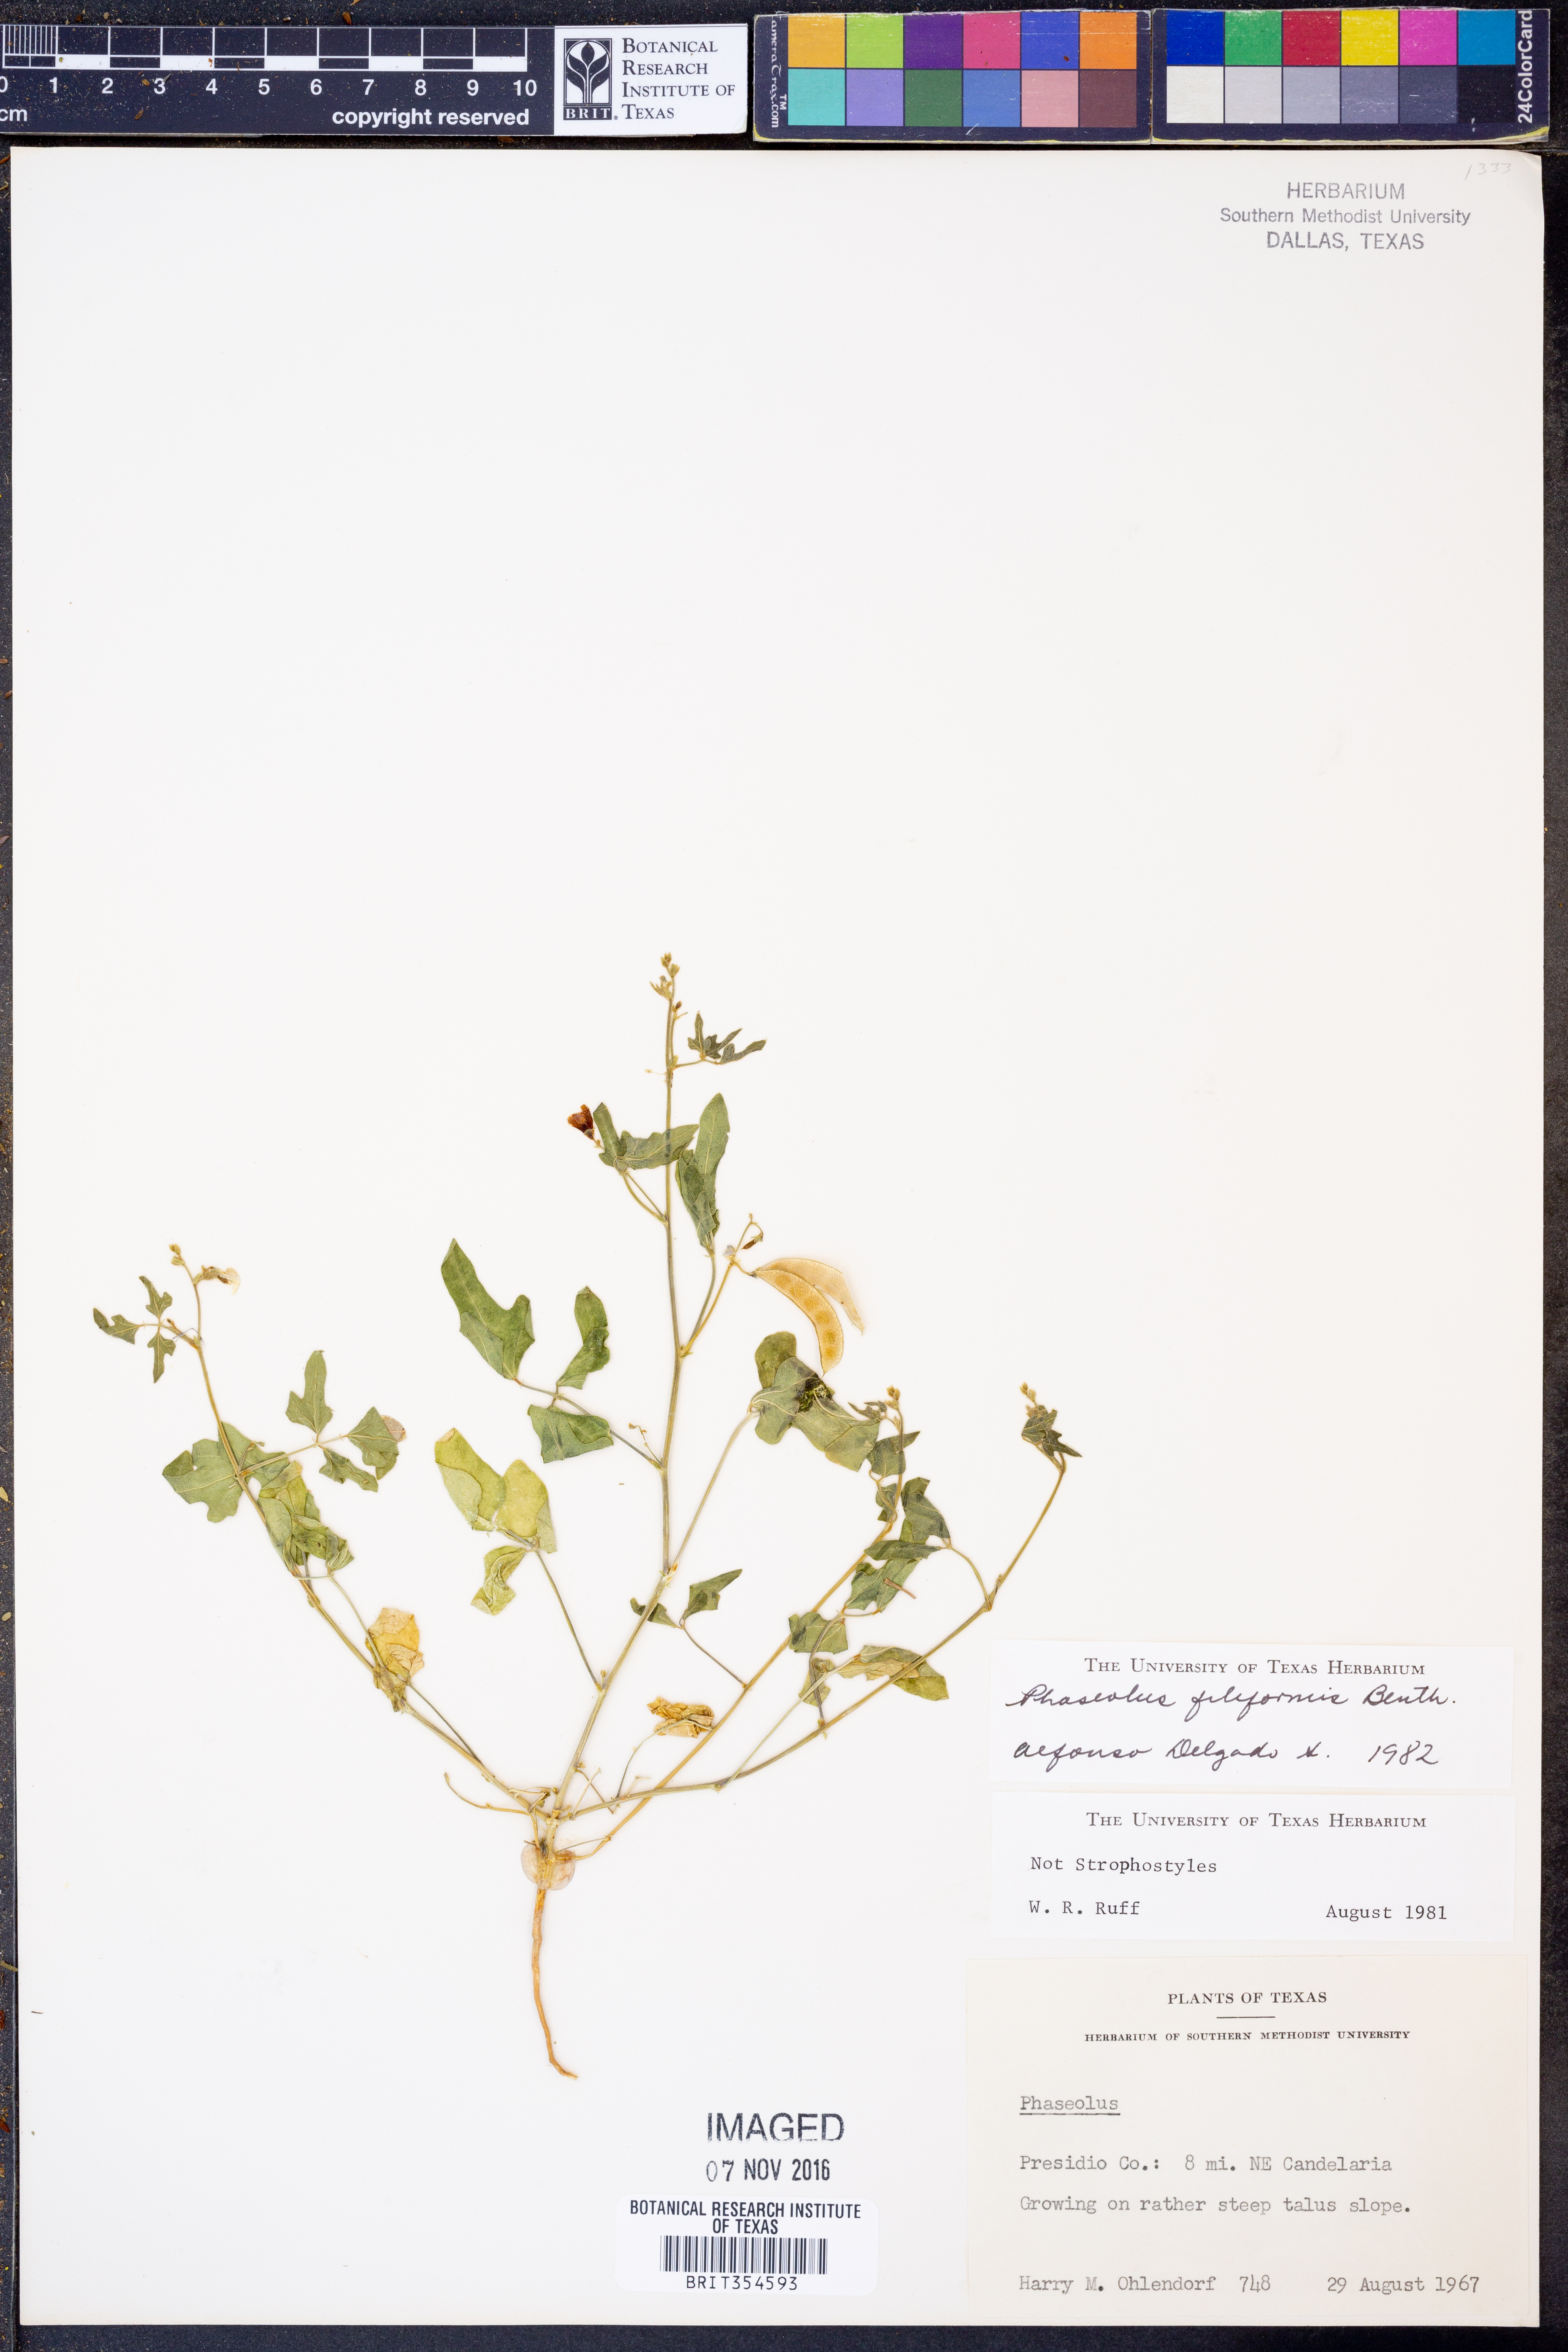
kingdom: Plantae
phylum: Tracheophyta
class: Magnoliopsida
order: Fabales
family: Fabaceae
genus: Phaseolus
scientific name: Phaseolus filiformis
